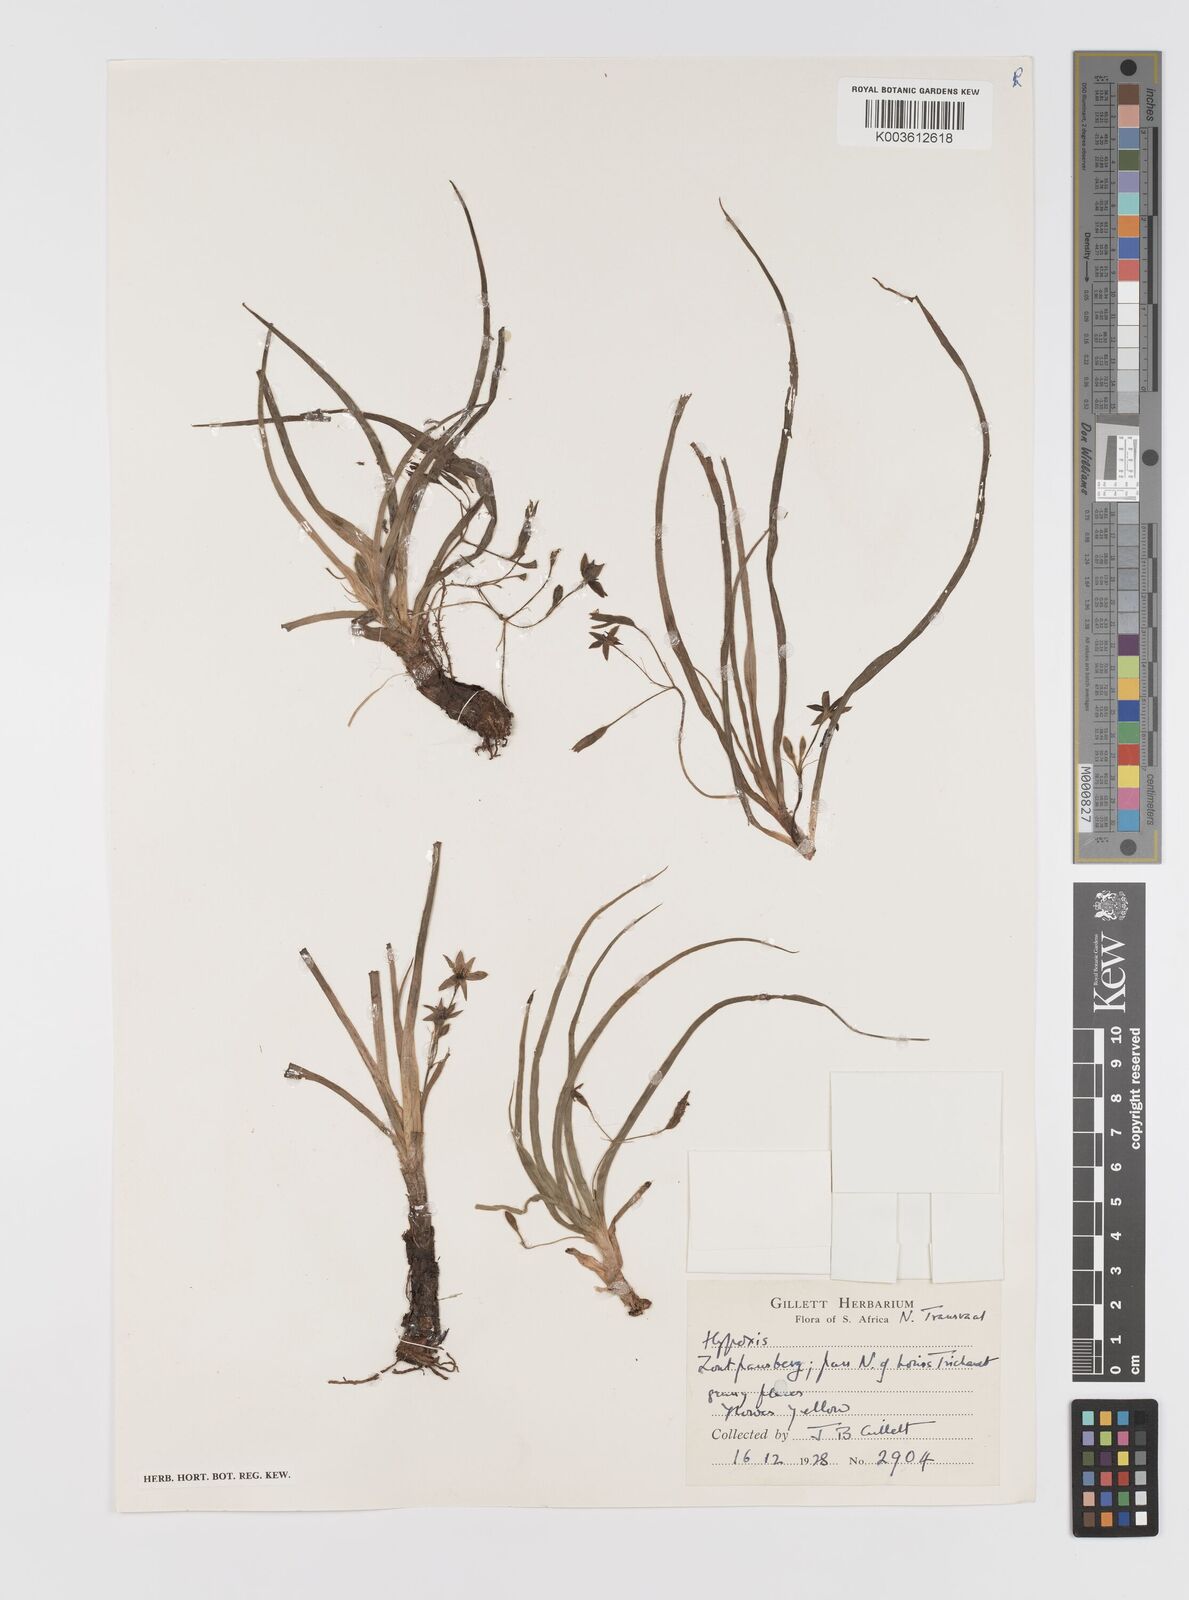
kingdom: Plantae
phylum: Tracheophyta
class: Liliopsida
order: Asparagales
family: Hypoxidaceae
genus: Hypoxis
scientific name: Hypoxis angustifolia
